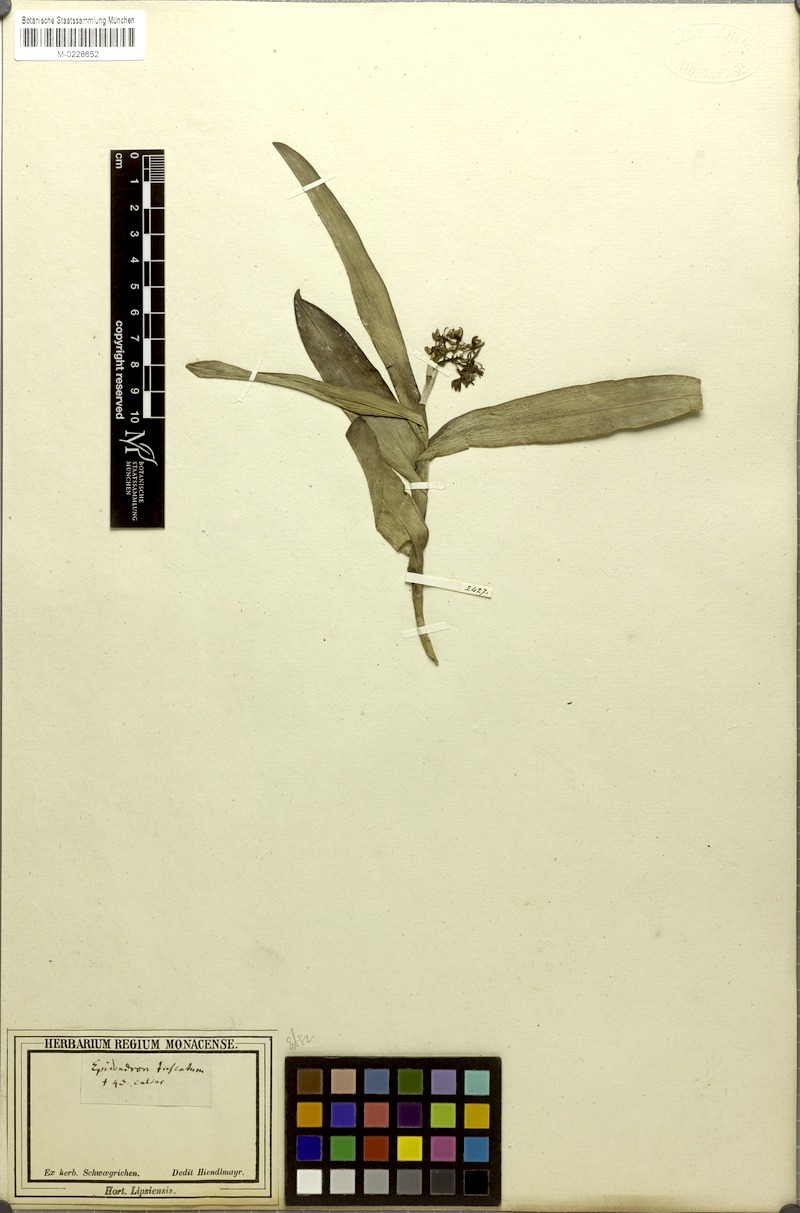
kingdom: Plantae
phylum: Tracheophyta
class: Liliopsida
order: Asparagales
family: Orchidaceae
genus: Epidendrum
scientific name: Epidendrum anceps
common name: Brown-flower butterfly orchid
